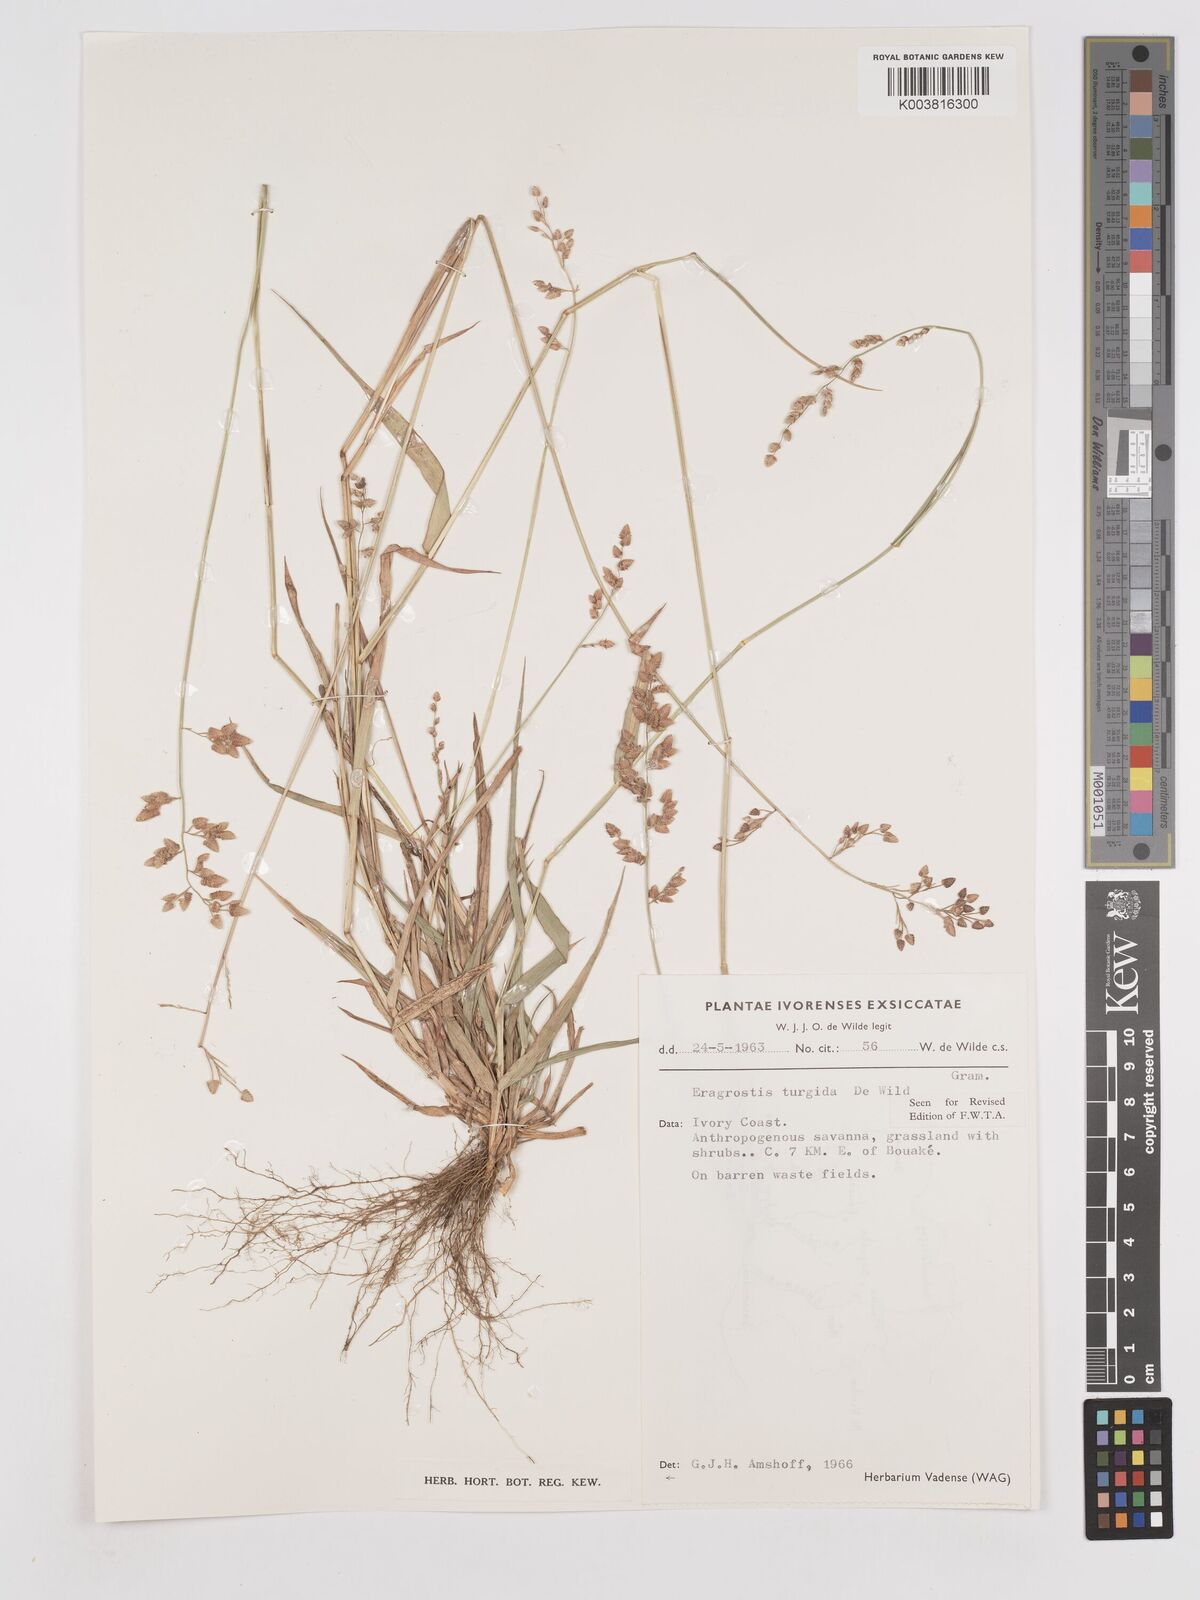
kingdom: Plantae
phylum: Tracheophyta
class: Liliopsida
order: Poales
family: Poaceae
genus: Eragrostis
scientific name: Eragrostis turgida
